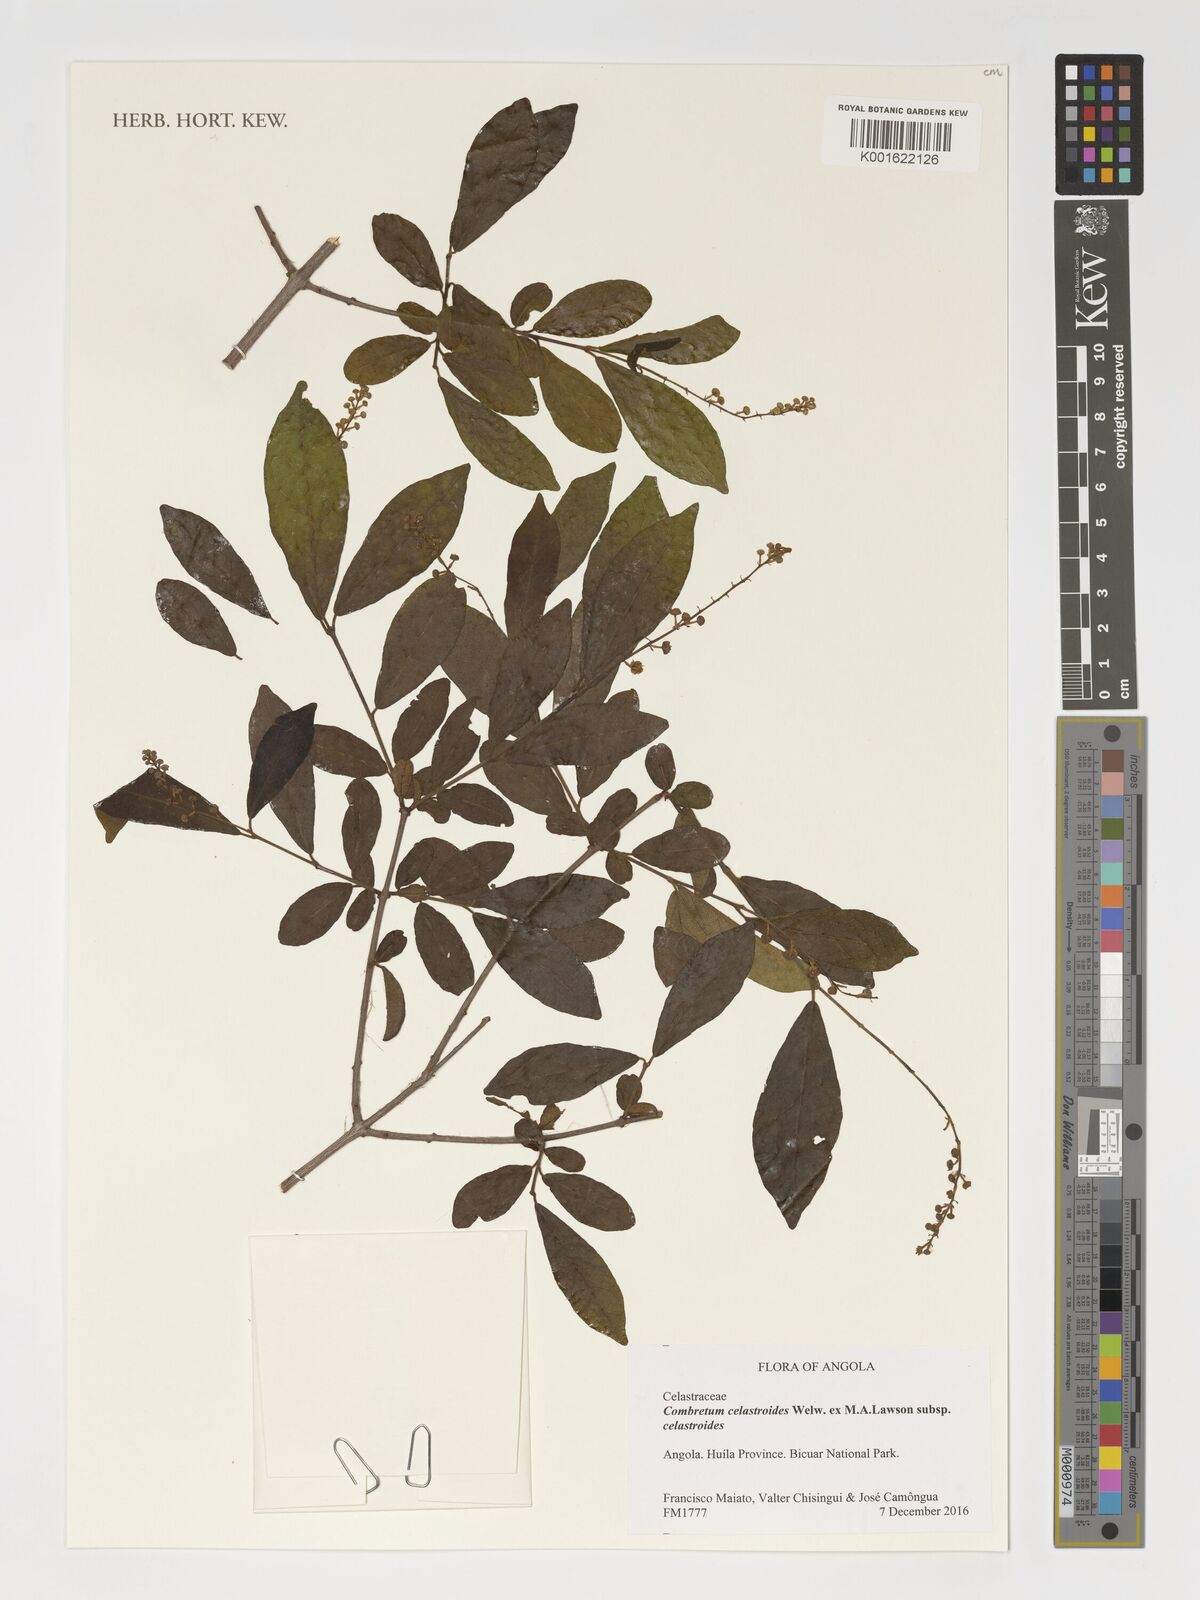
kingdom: Plantae
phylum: Tracheophyta
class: Magnoliopsida
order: Myrtales
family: Combretaceae
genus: Combretum
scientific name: Combretum celastroides
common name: Jesse-bush combretum
